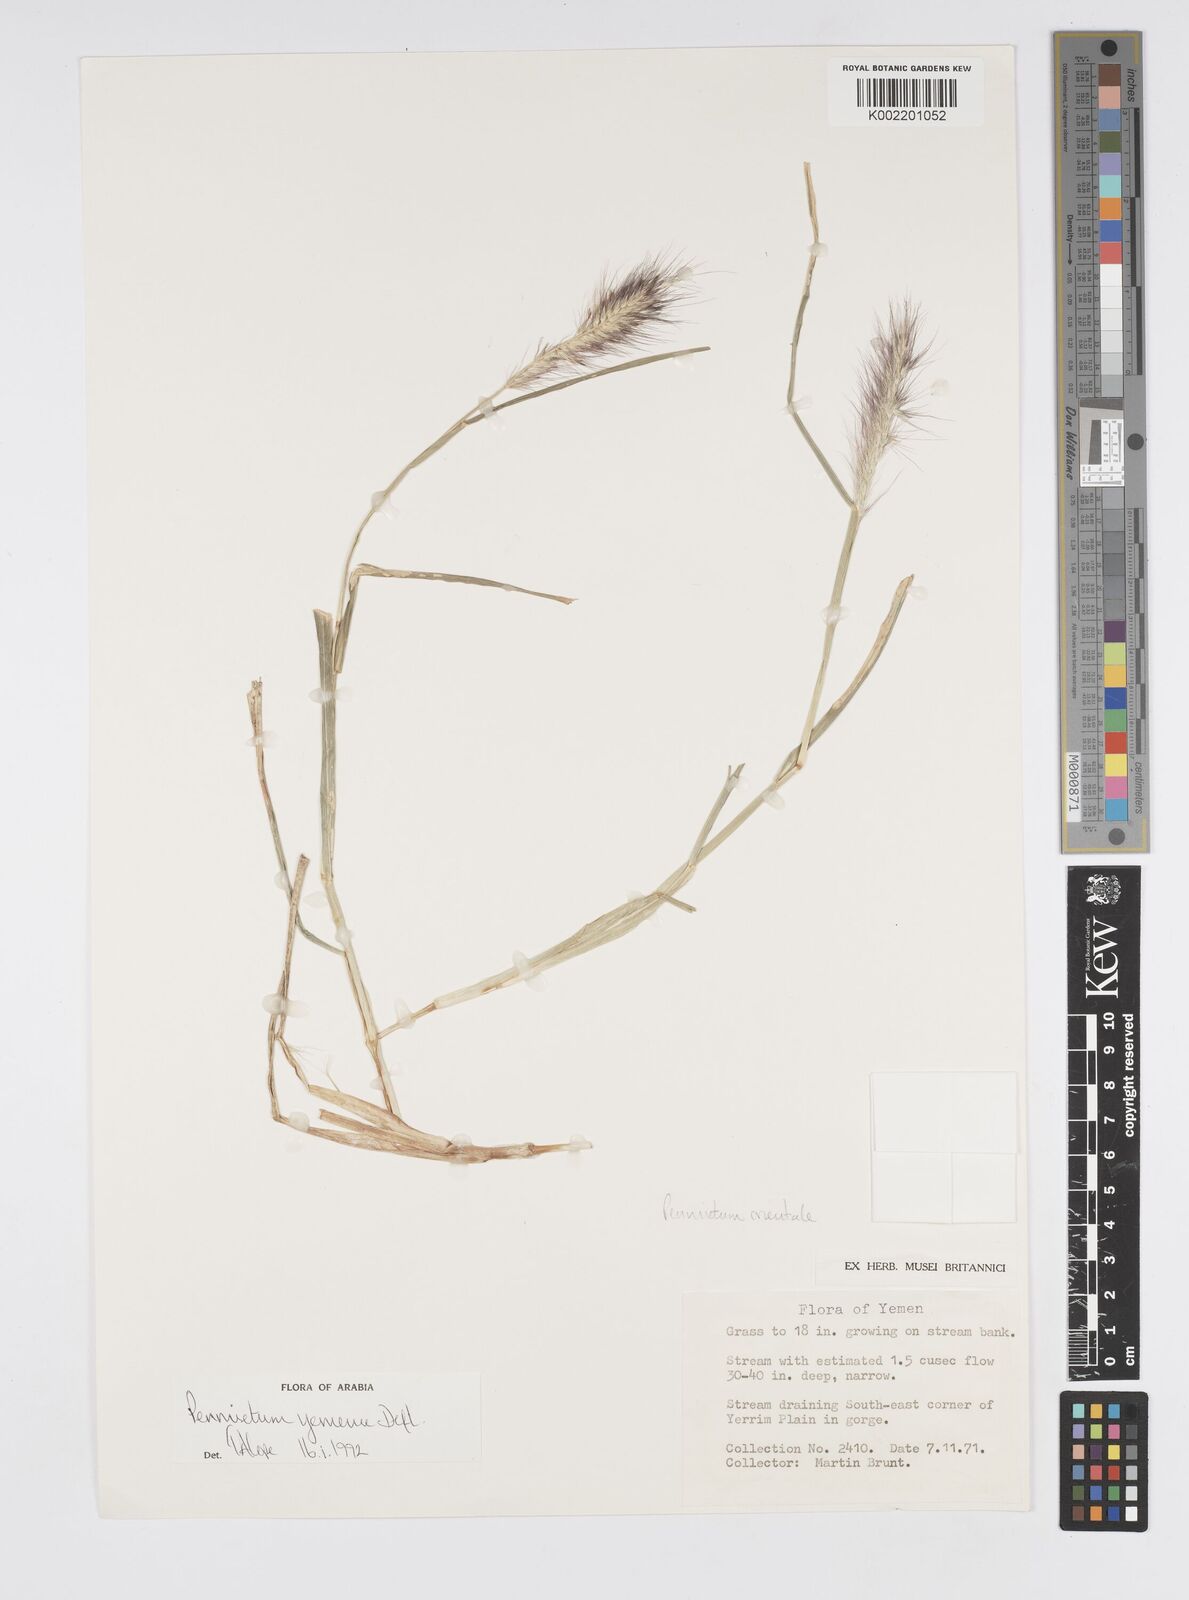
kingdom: Plantae
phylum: Tracheophyta
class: Liliopsida
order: Poales
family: Poaceae
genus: Cenchrus
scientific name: Cenchrus yemensis
